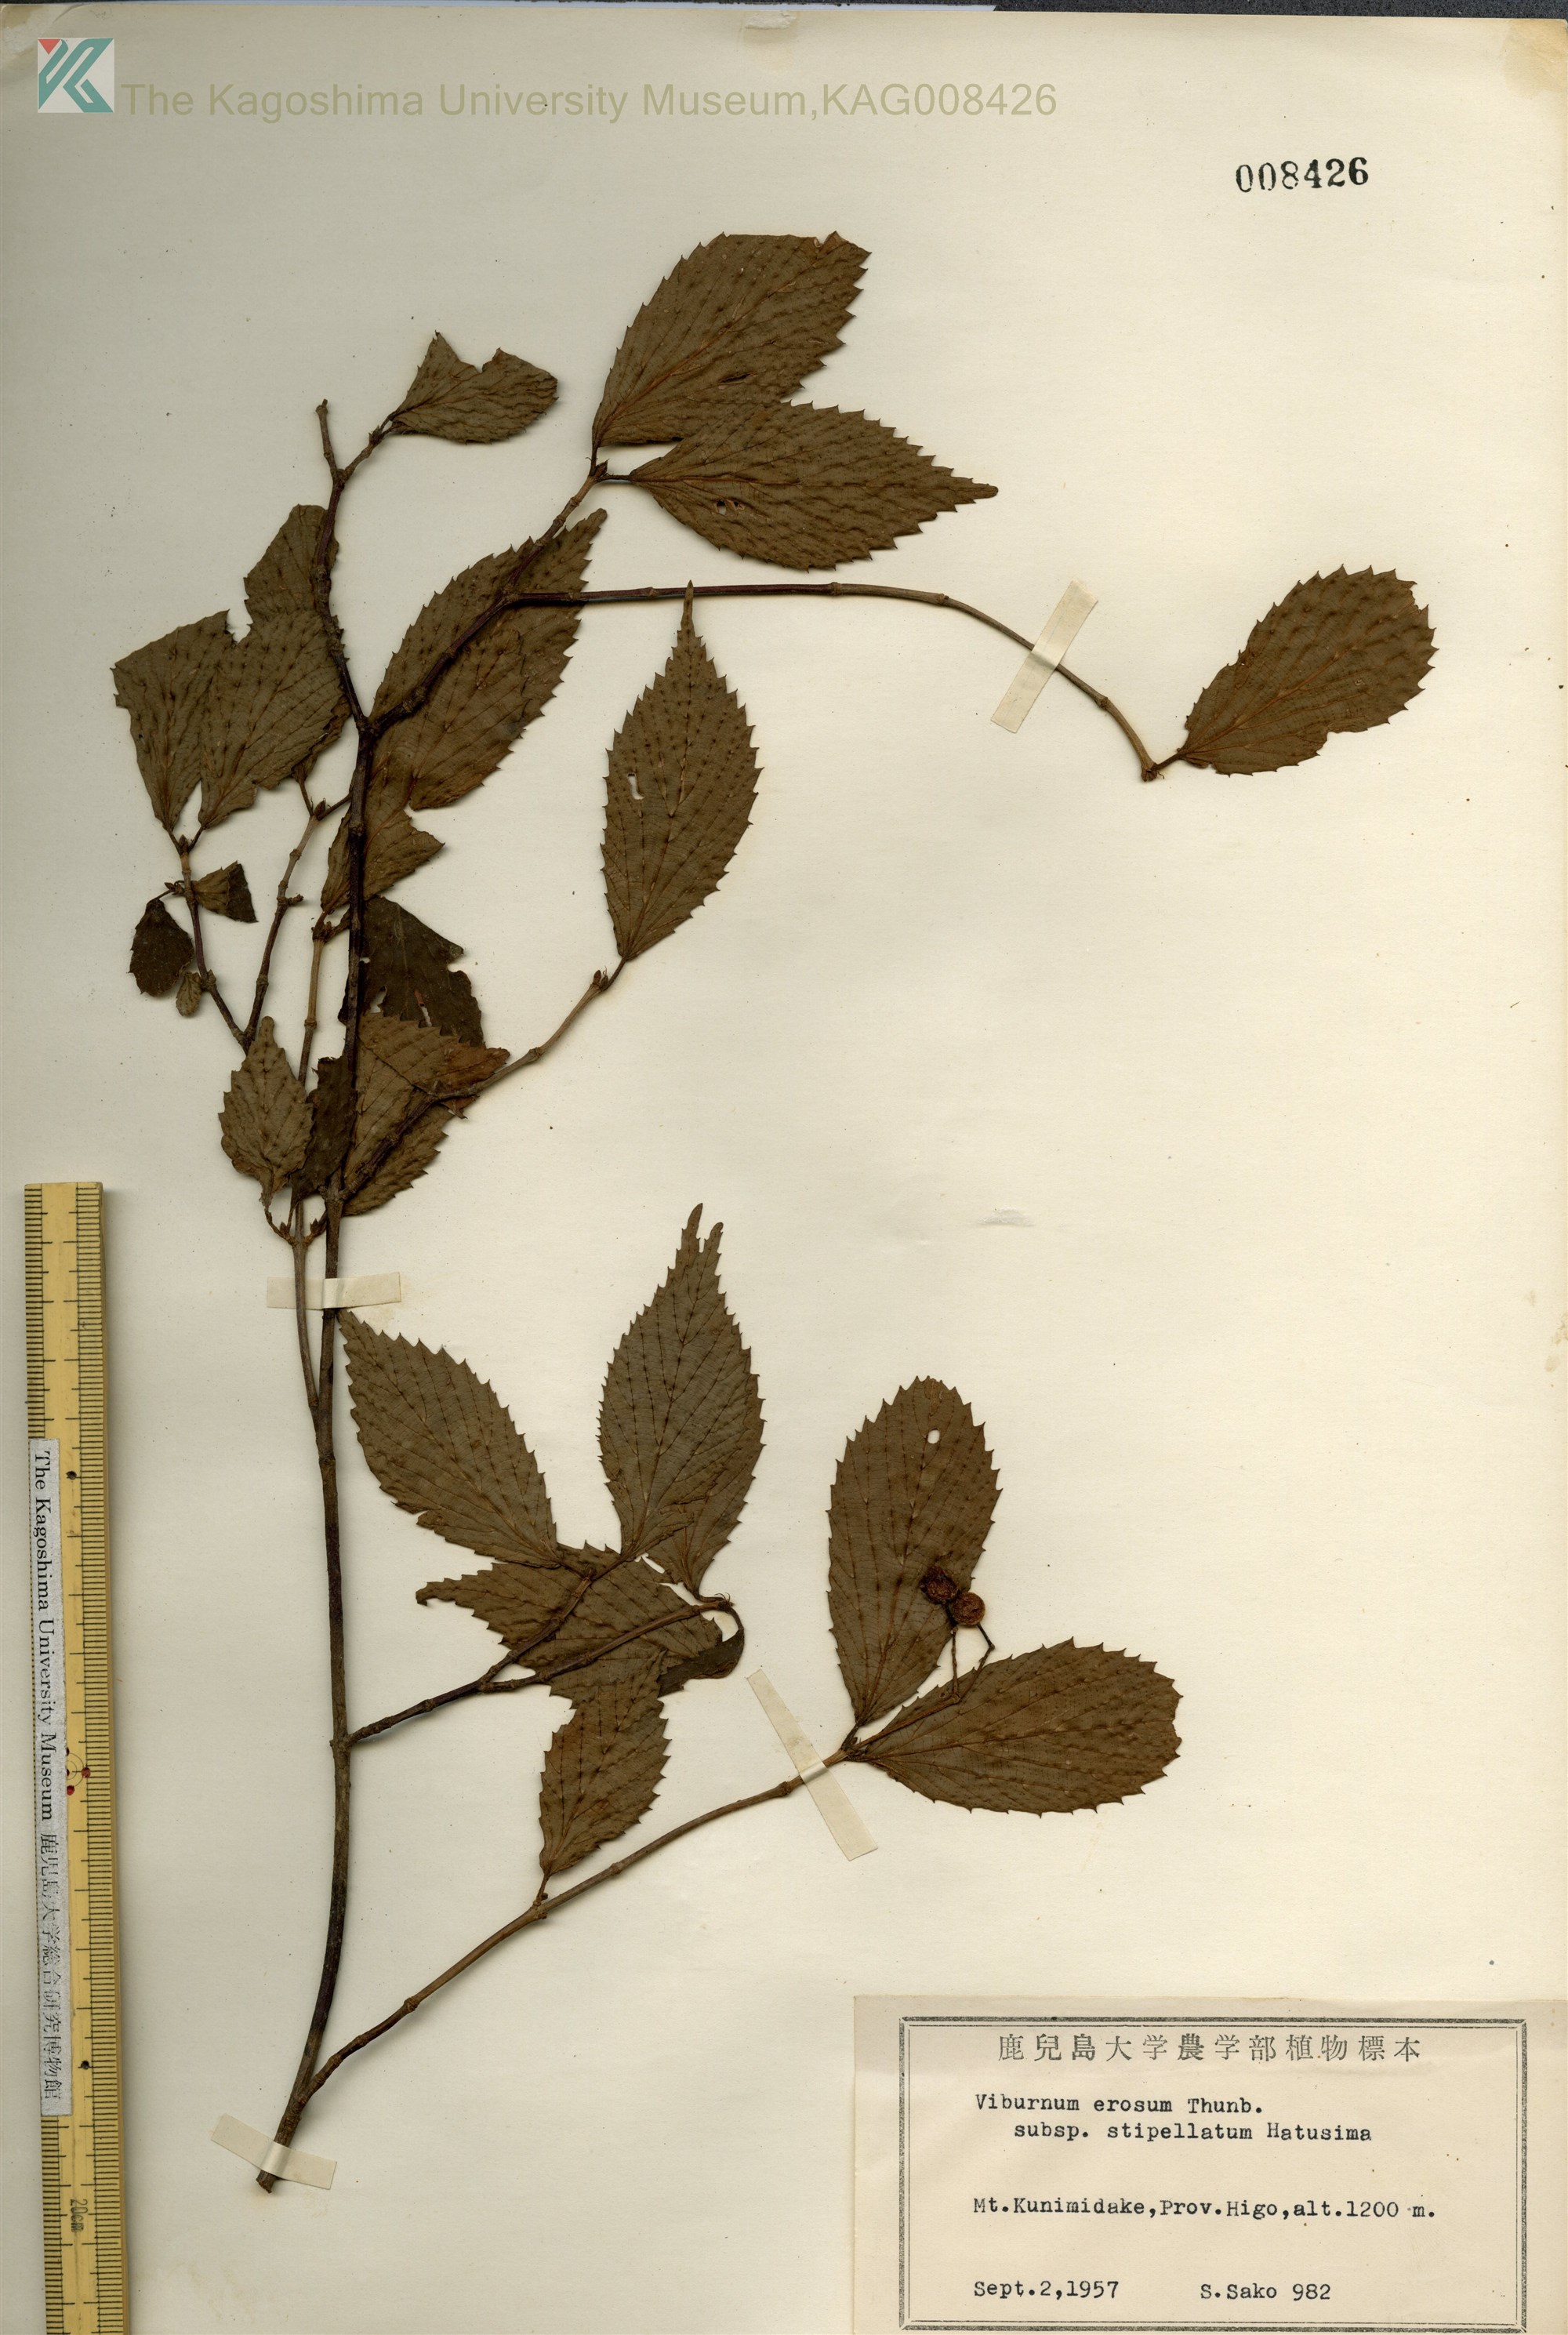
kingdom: Plantae
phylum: Tracheophyta
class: Magnoliopsida
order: Dipsacales
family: Viburnaceae
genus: Viburnum
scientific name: Viburnum erosum
